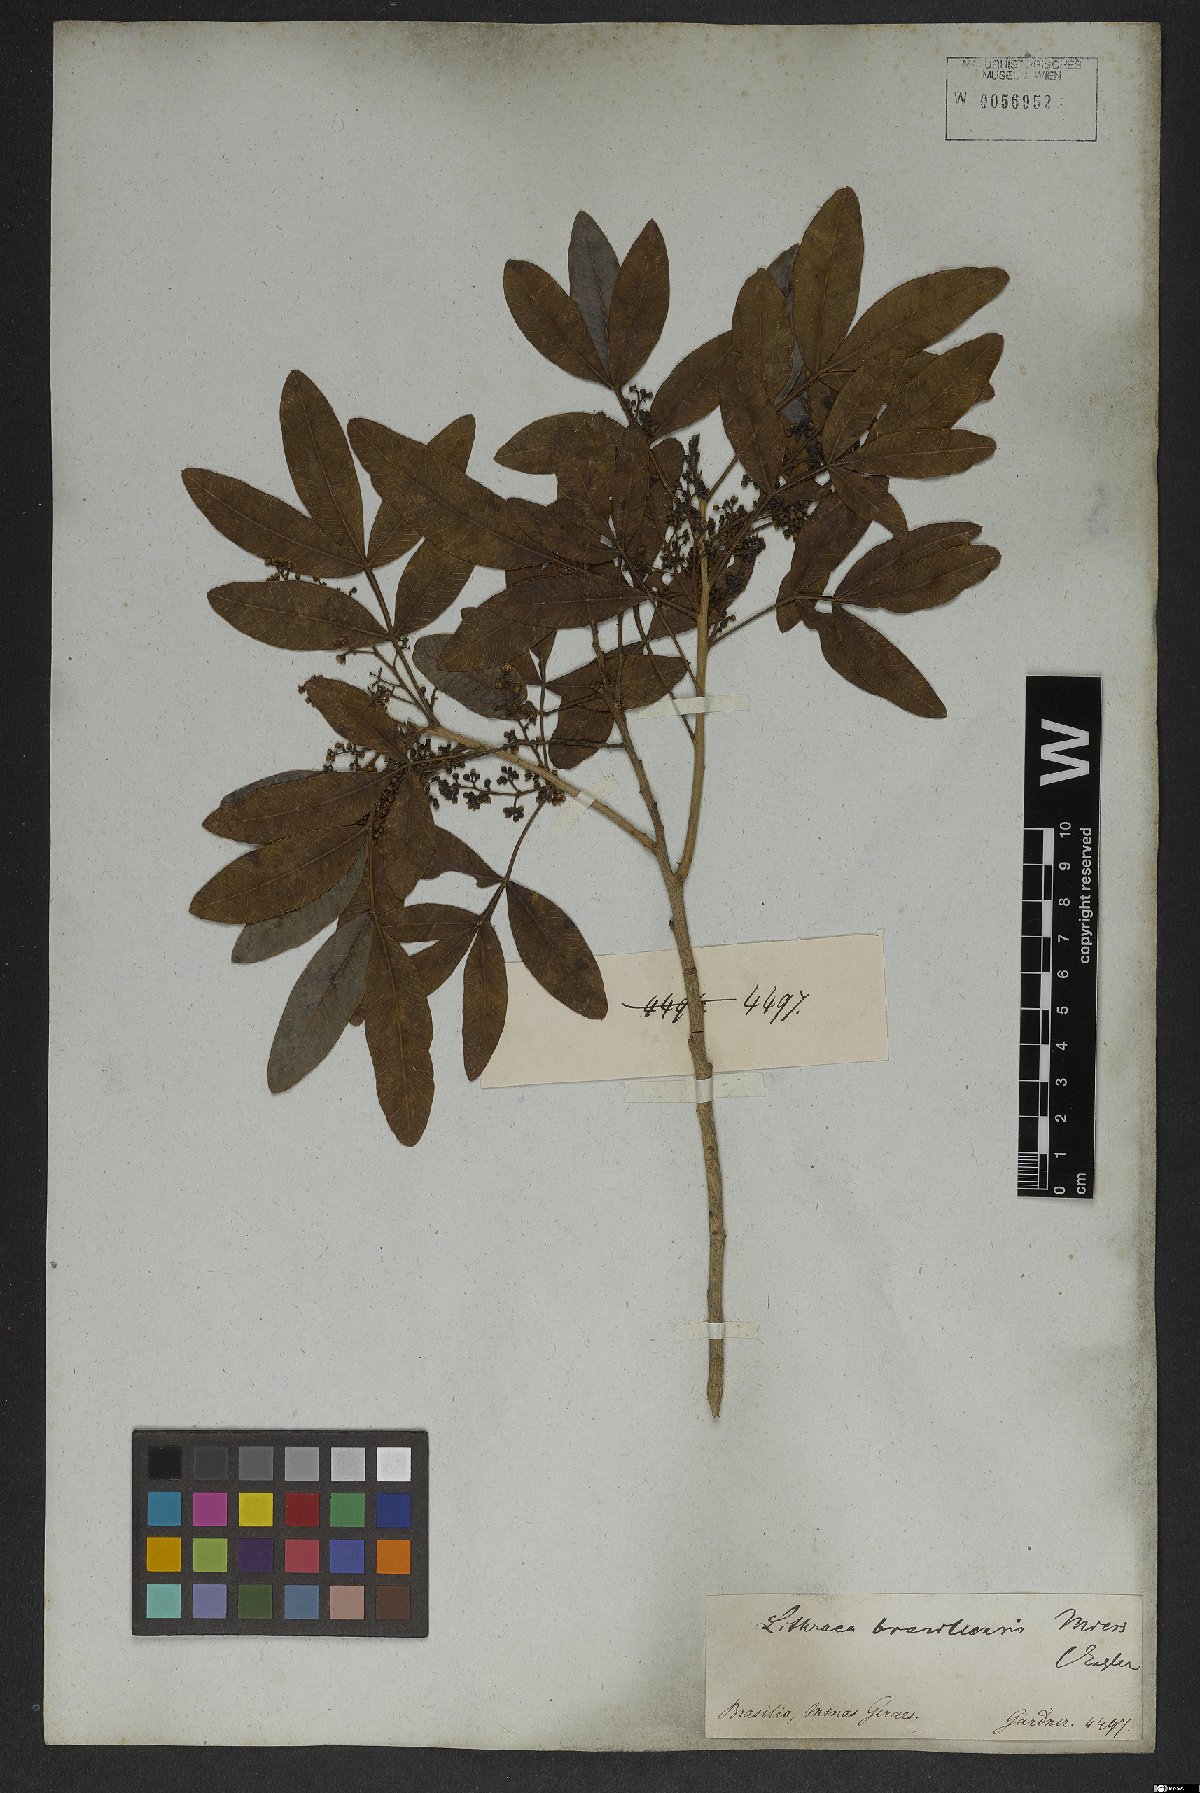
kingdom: Plantae
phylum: Tracheophyta
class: Magnoliopsida
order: Sapindales
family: Anacardiaceae
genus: Lithraea
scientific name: Lithraea brasiliensis
